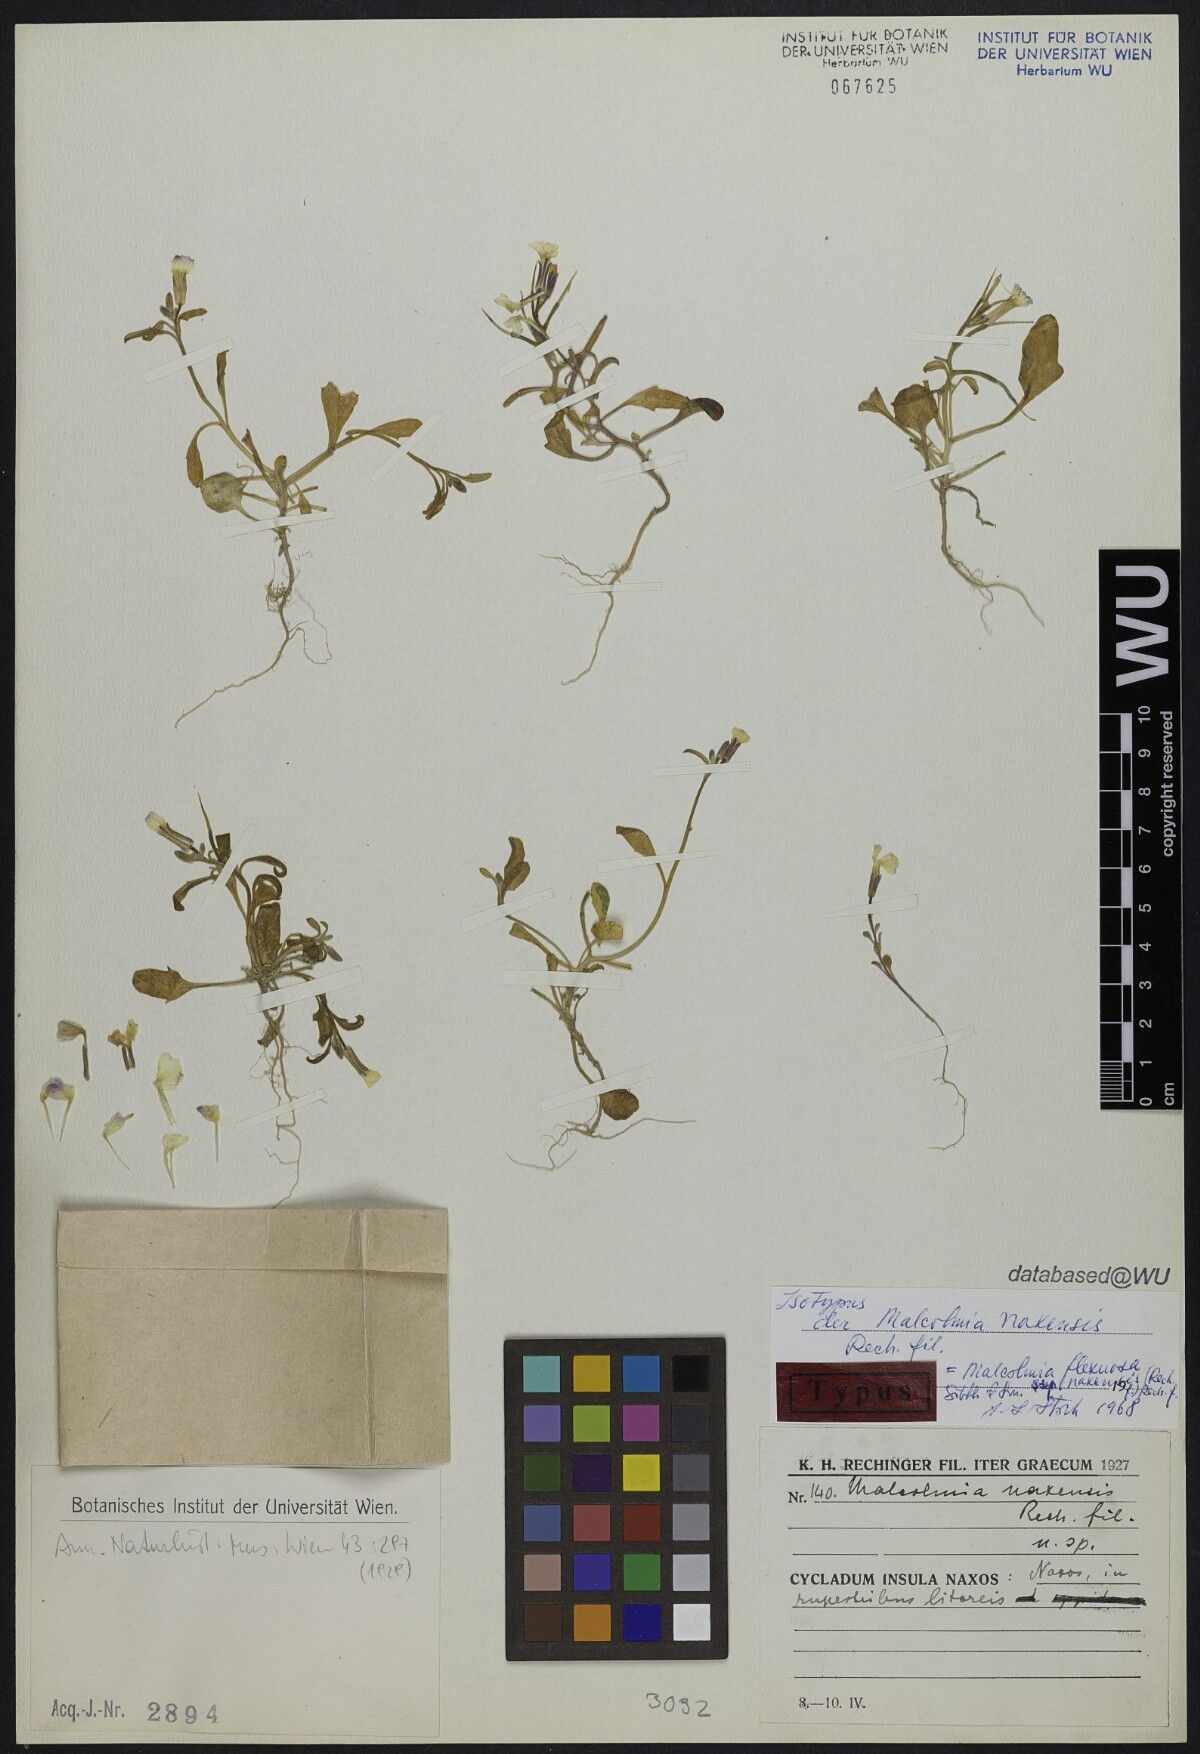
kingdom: Plantae
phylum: Tracheophyta
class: Magnoliopsida
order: Brassicales
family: Brassicaceae
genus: Malcolmia
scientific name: Malcolmia flexuosa
